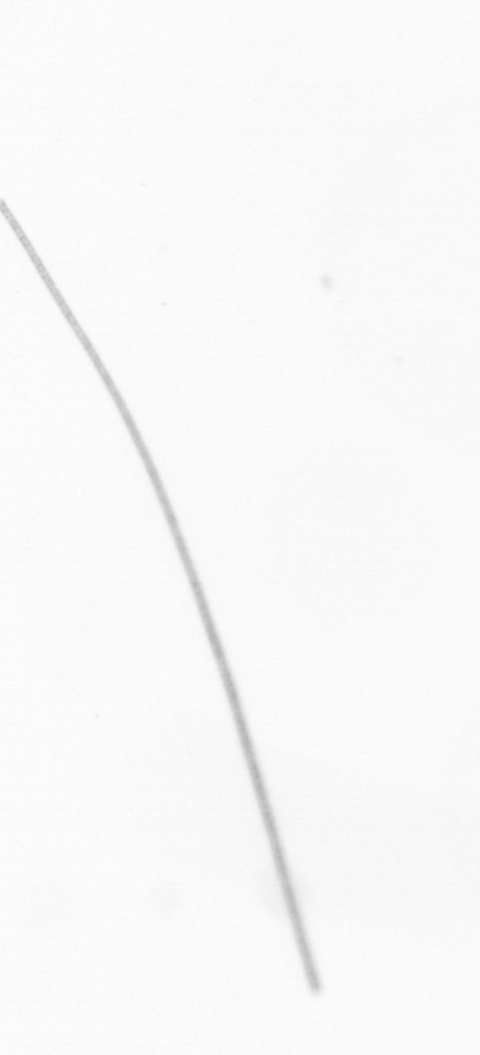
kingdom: Chromista
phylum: Ochrophyta
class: Bacillariophyceae
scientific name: Bacillariophyceae
